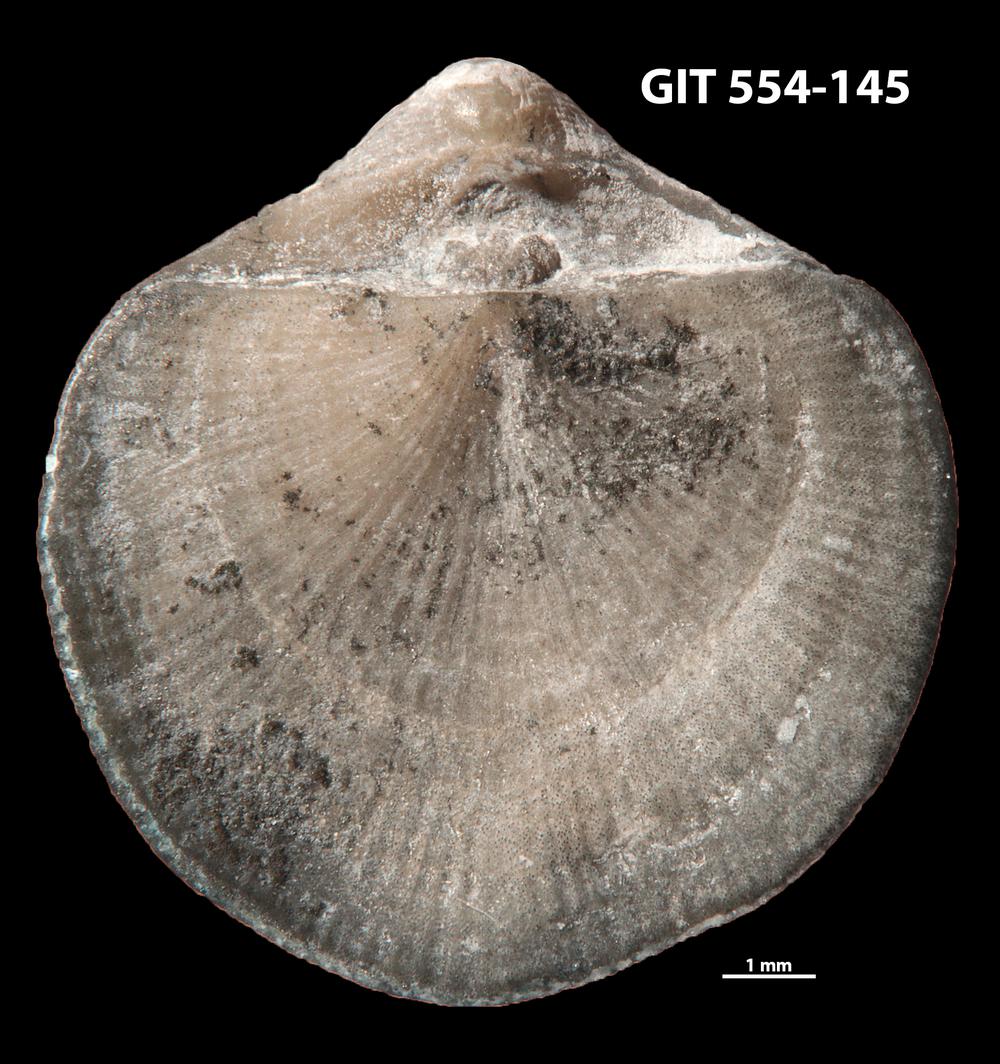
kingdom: Animalia
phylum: Brachiopoda
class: Rhynchonellata
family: Dalmanellidae
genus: Visbyella
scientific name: Visbyella Orthis visbyensis
